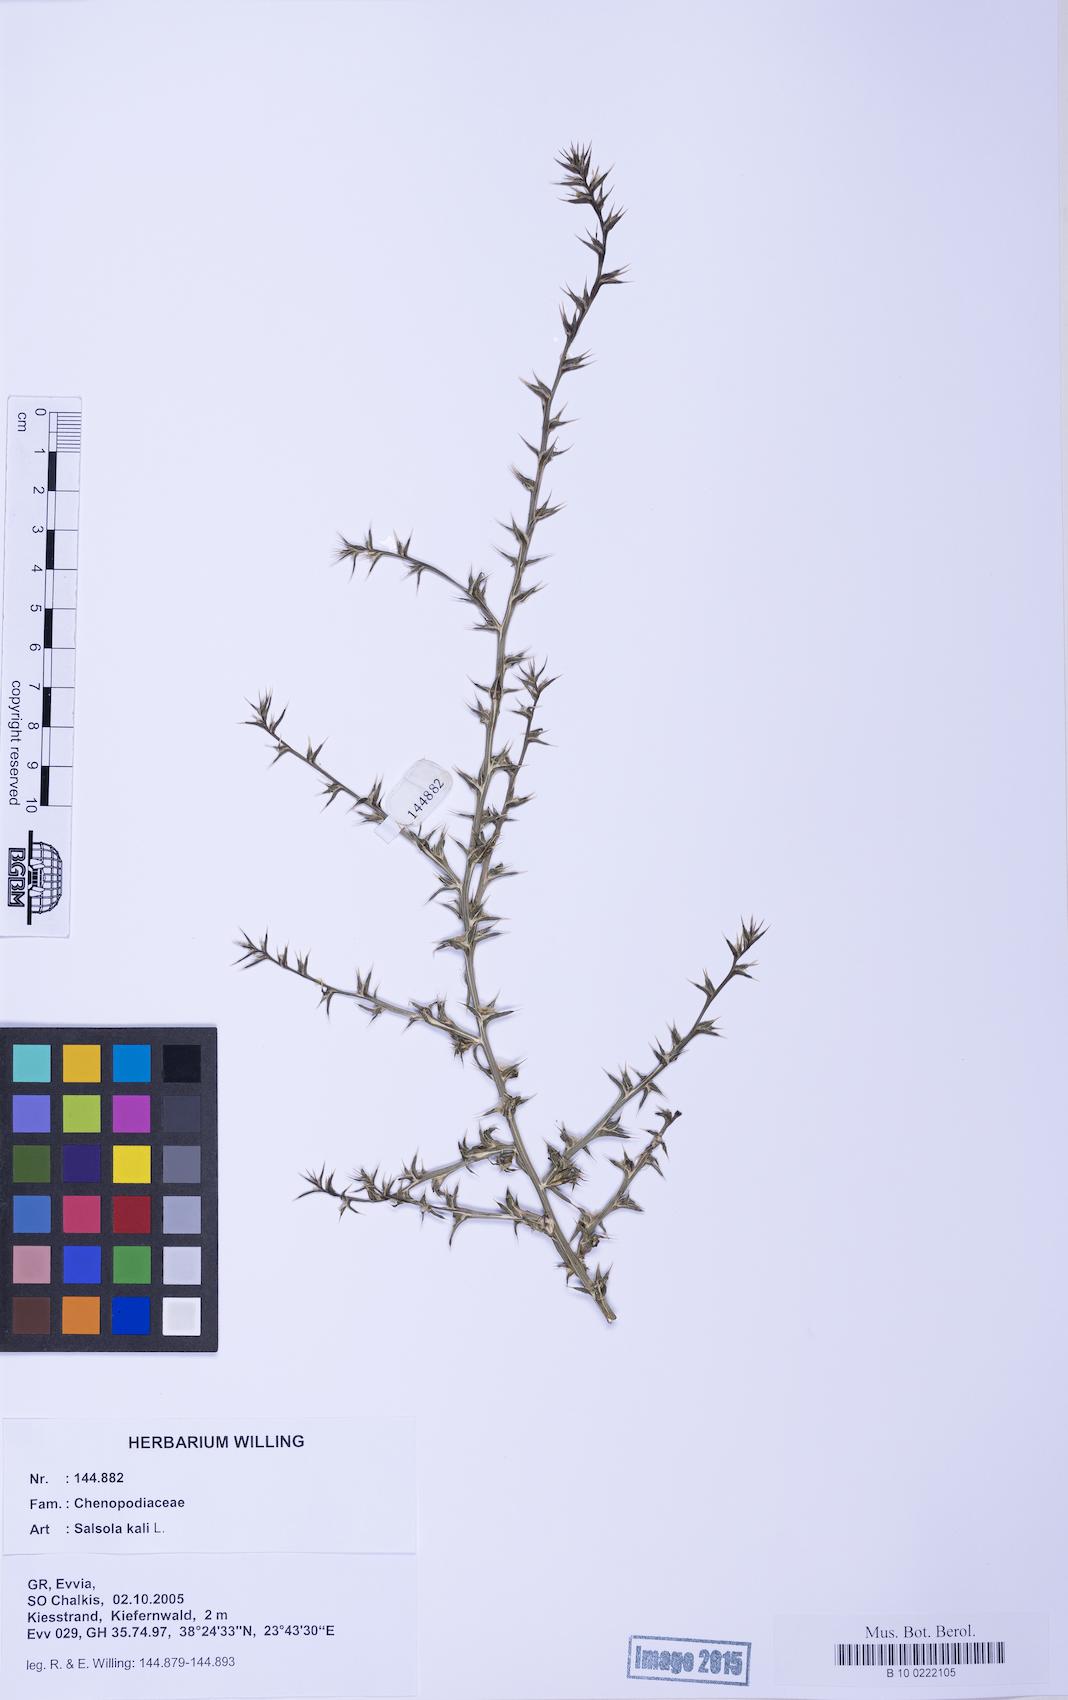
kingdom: Plantae
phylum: Tracheophyta
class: Magnoliopsida
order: Caryophyllales
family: Amaranthaceae
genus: Salsola
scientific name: Salsola kali
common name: Saltwort
